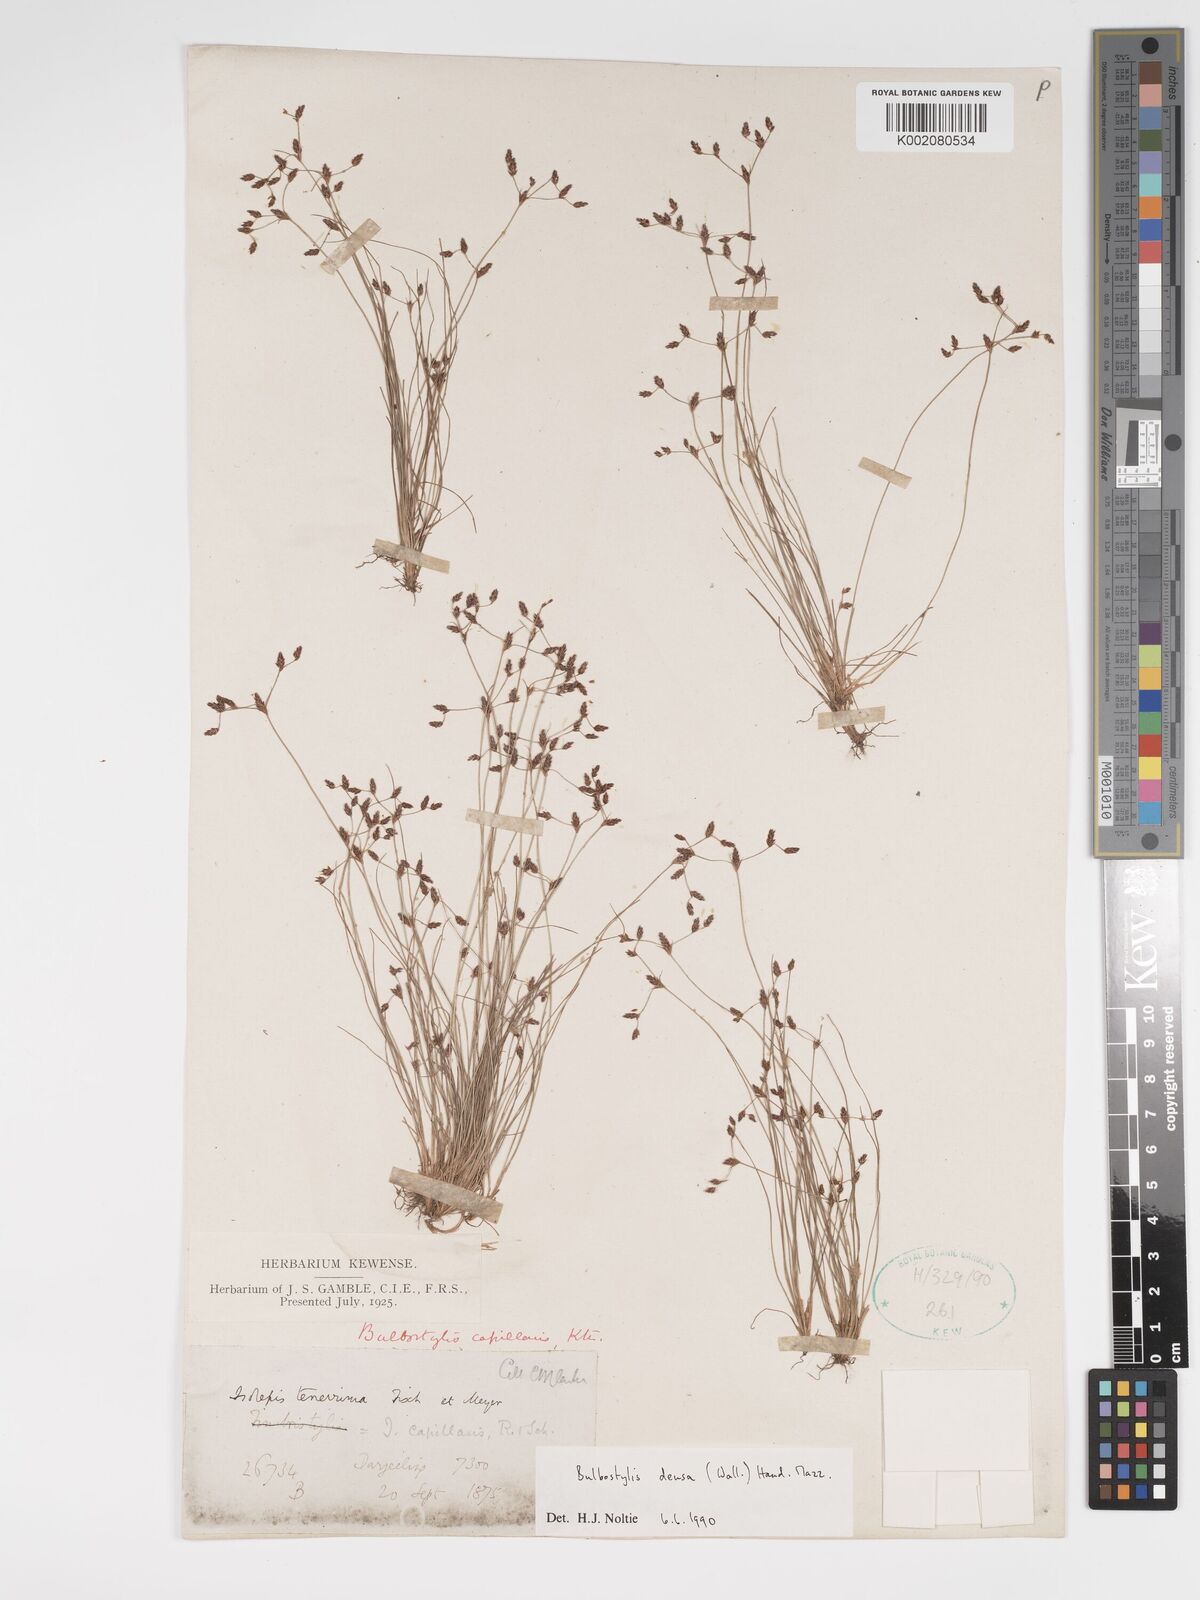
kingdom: Plantae
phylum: Tracheophyta
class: Liliopsida
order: Poales
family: Cyperaceae
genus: Bulbostylis
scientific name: Bulbostylis densa
